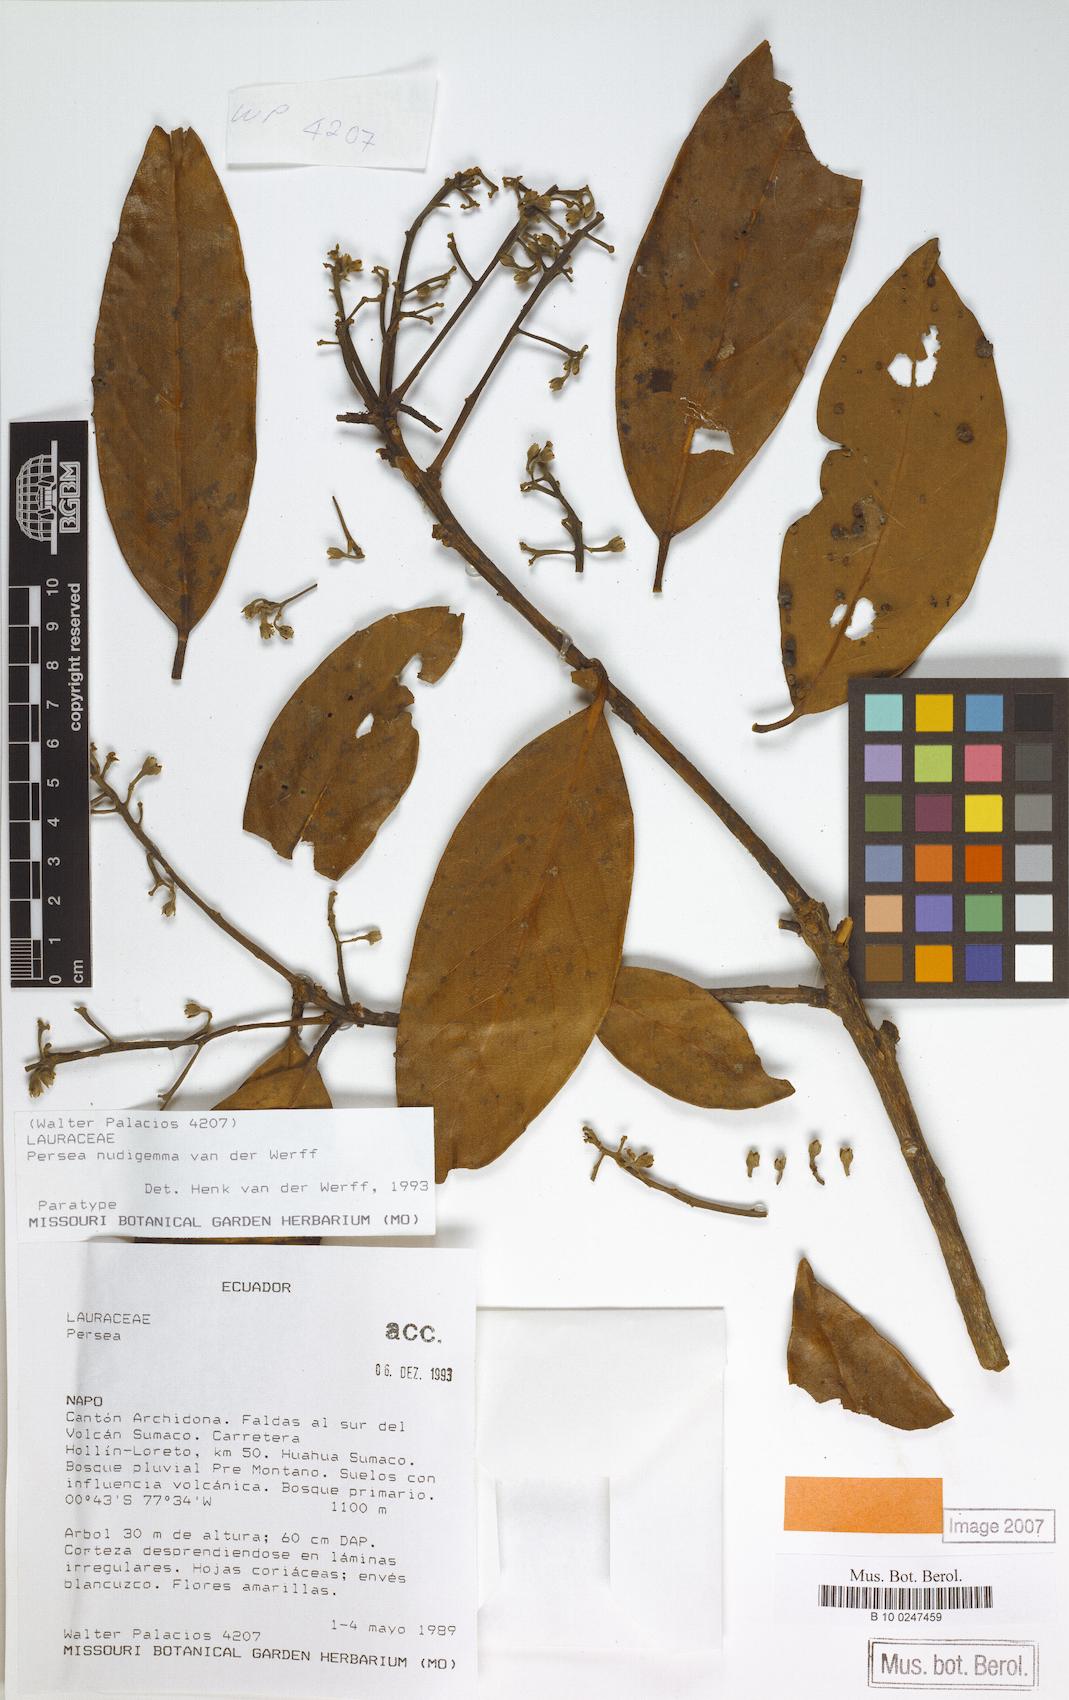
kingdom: Plantae
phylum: Tracheophyta
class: Magnoliopsida
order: Laurales
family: Lauraceae
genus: Persea
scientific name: Persea nudigemma
